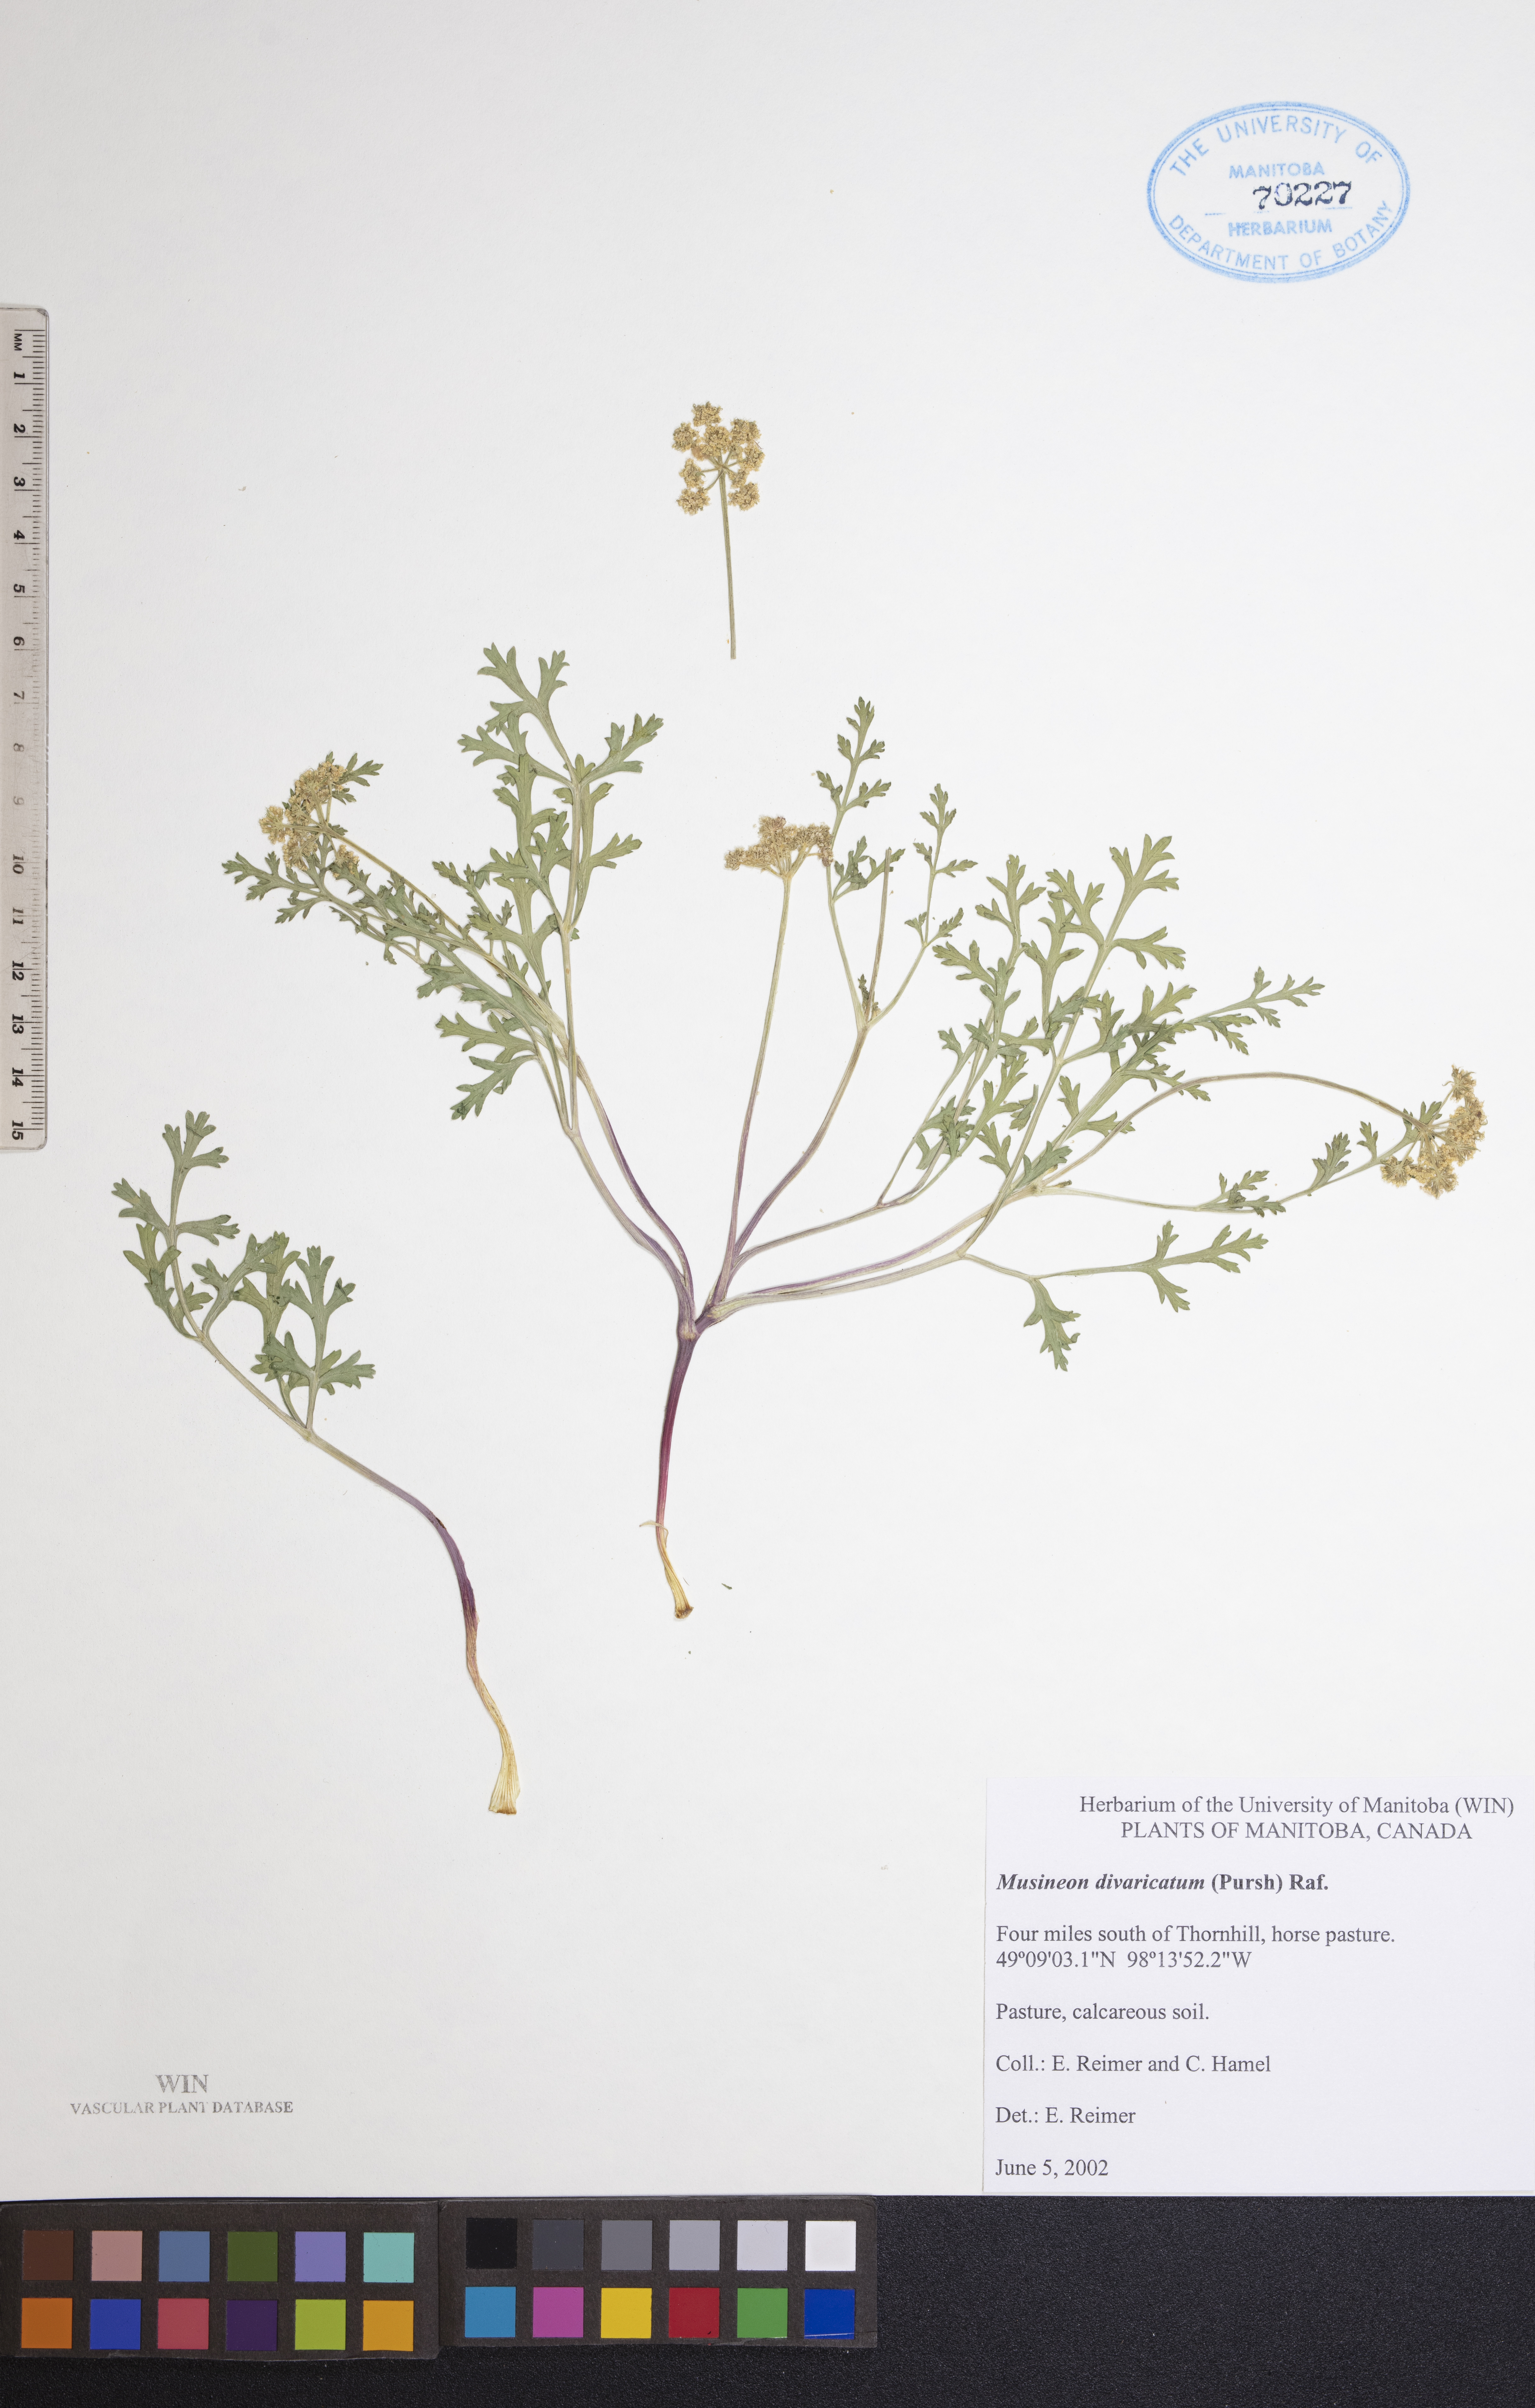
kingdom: Plantae
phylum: Tracheophyta
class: Magnoliopsida
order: Apiales
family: Apiaceae
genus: Musineon
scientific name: Musineon divaricatum
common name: Plains musineon
